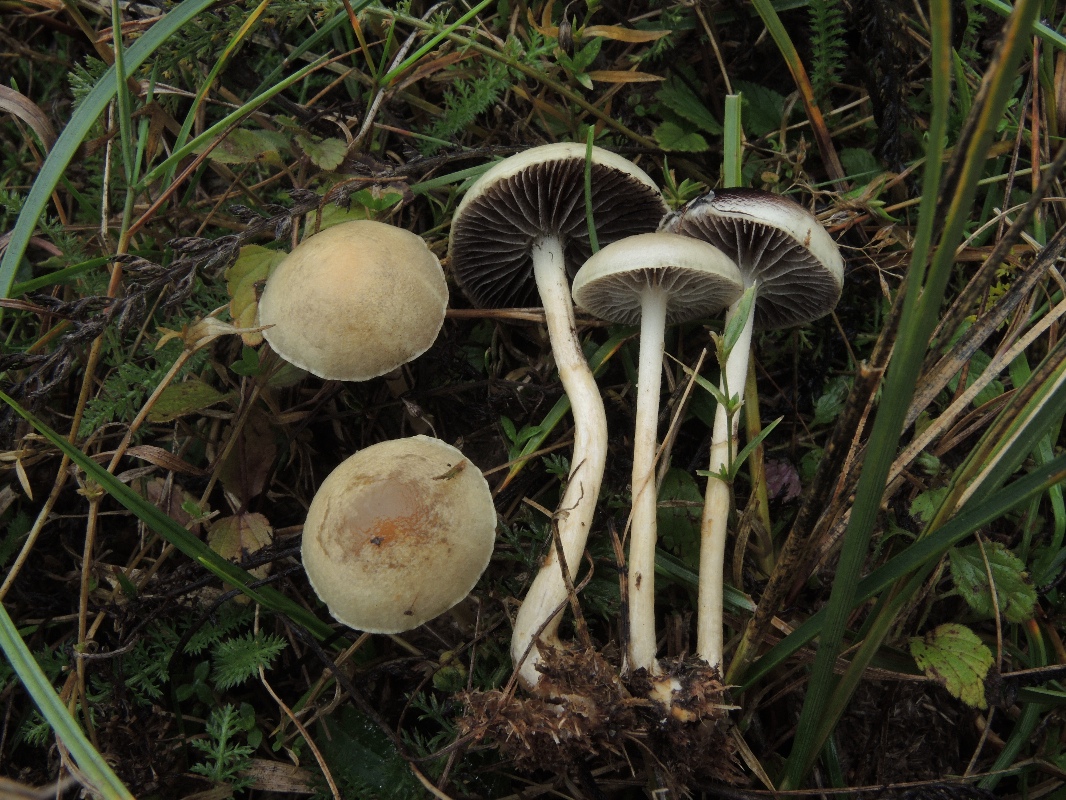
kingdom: Fungi
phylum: Basidiomycota
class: Agaricomycetes
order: Agaricales
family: Strophariaceae
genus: Protostropharia
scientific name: Protostropharia semiglobata
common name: halvkugleformet bredblad
